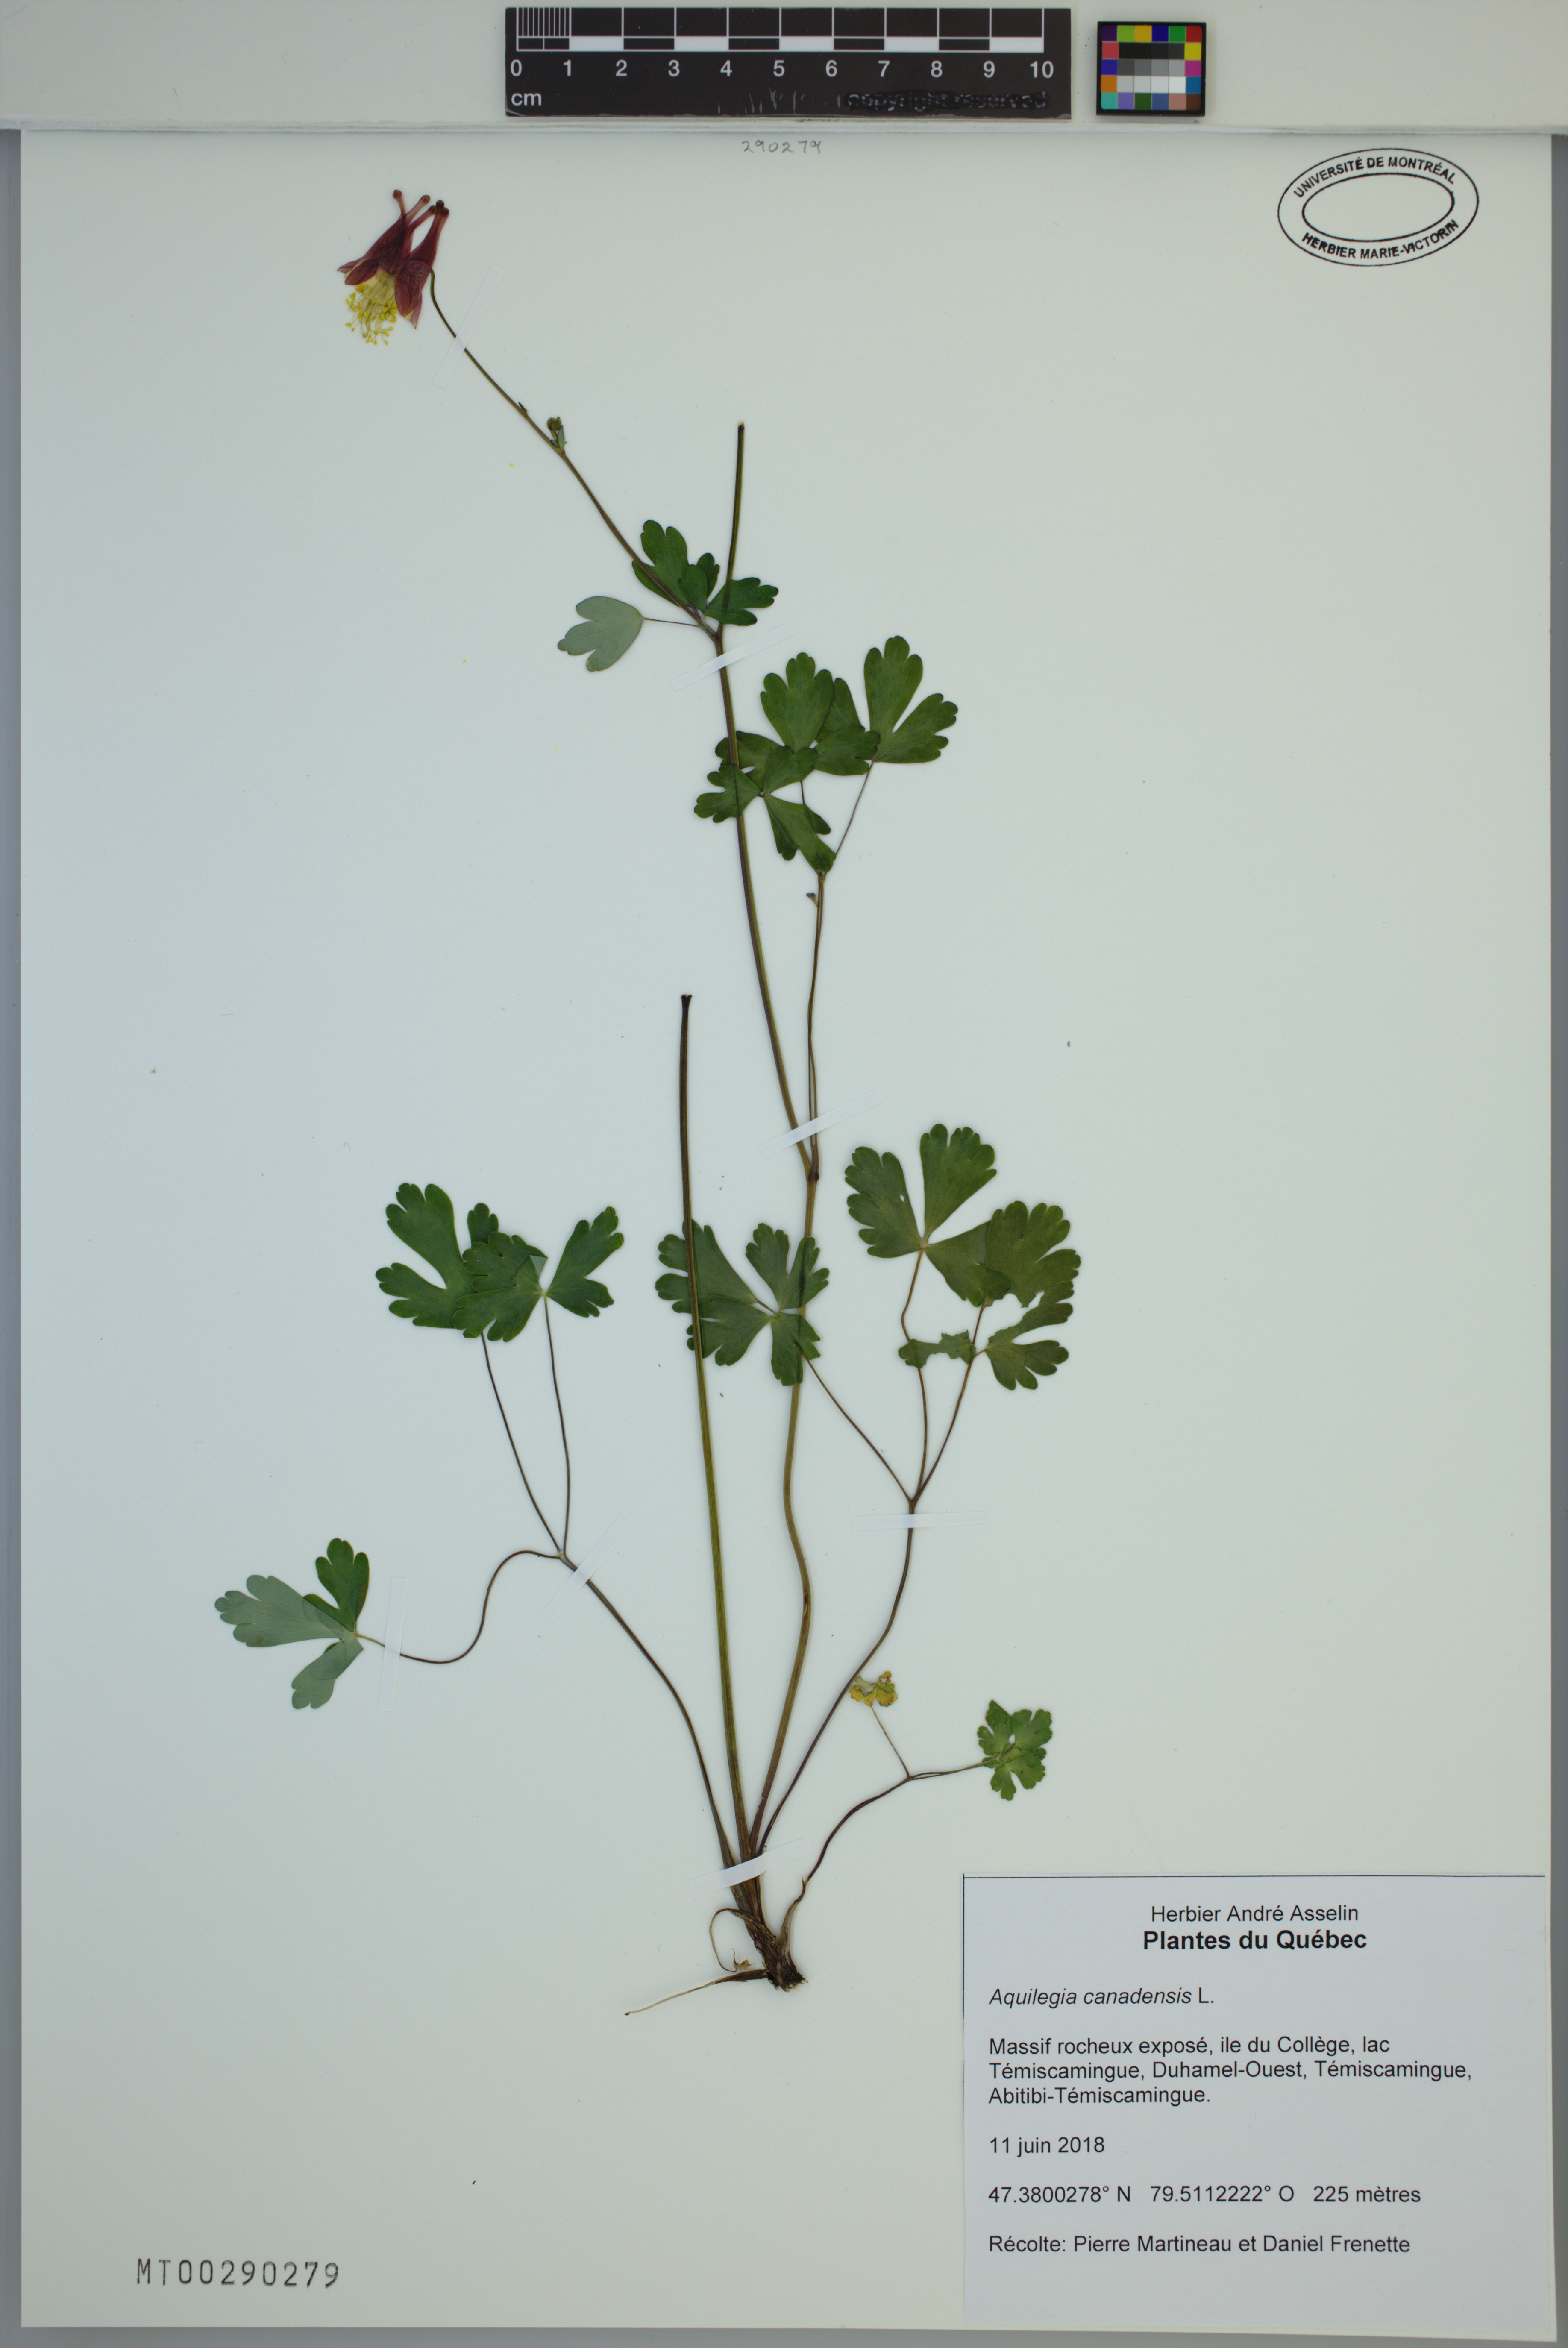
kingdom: Plantae
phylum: Tracheophyta
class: Magnoliopsida
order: Ranunculales
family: Ranunculaceae
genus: Aquilegia
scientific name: Aquilegia canadensis
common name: American columbine
